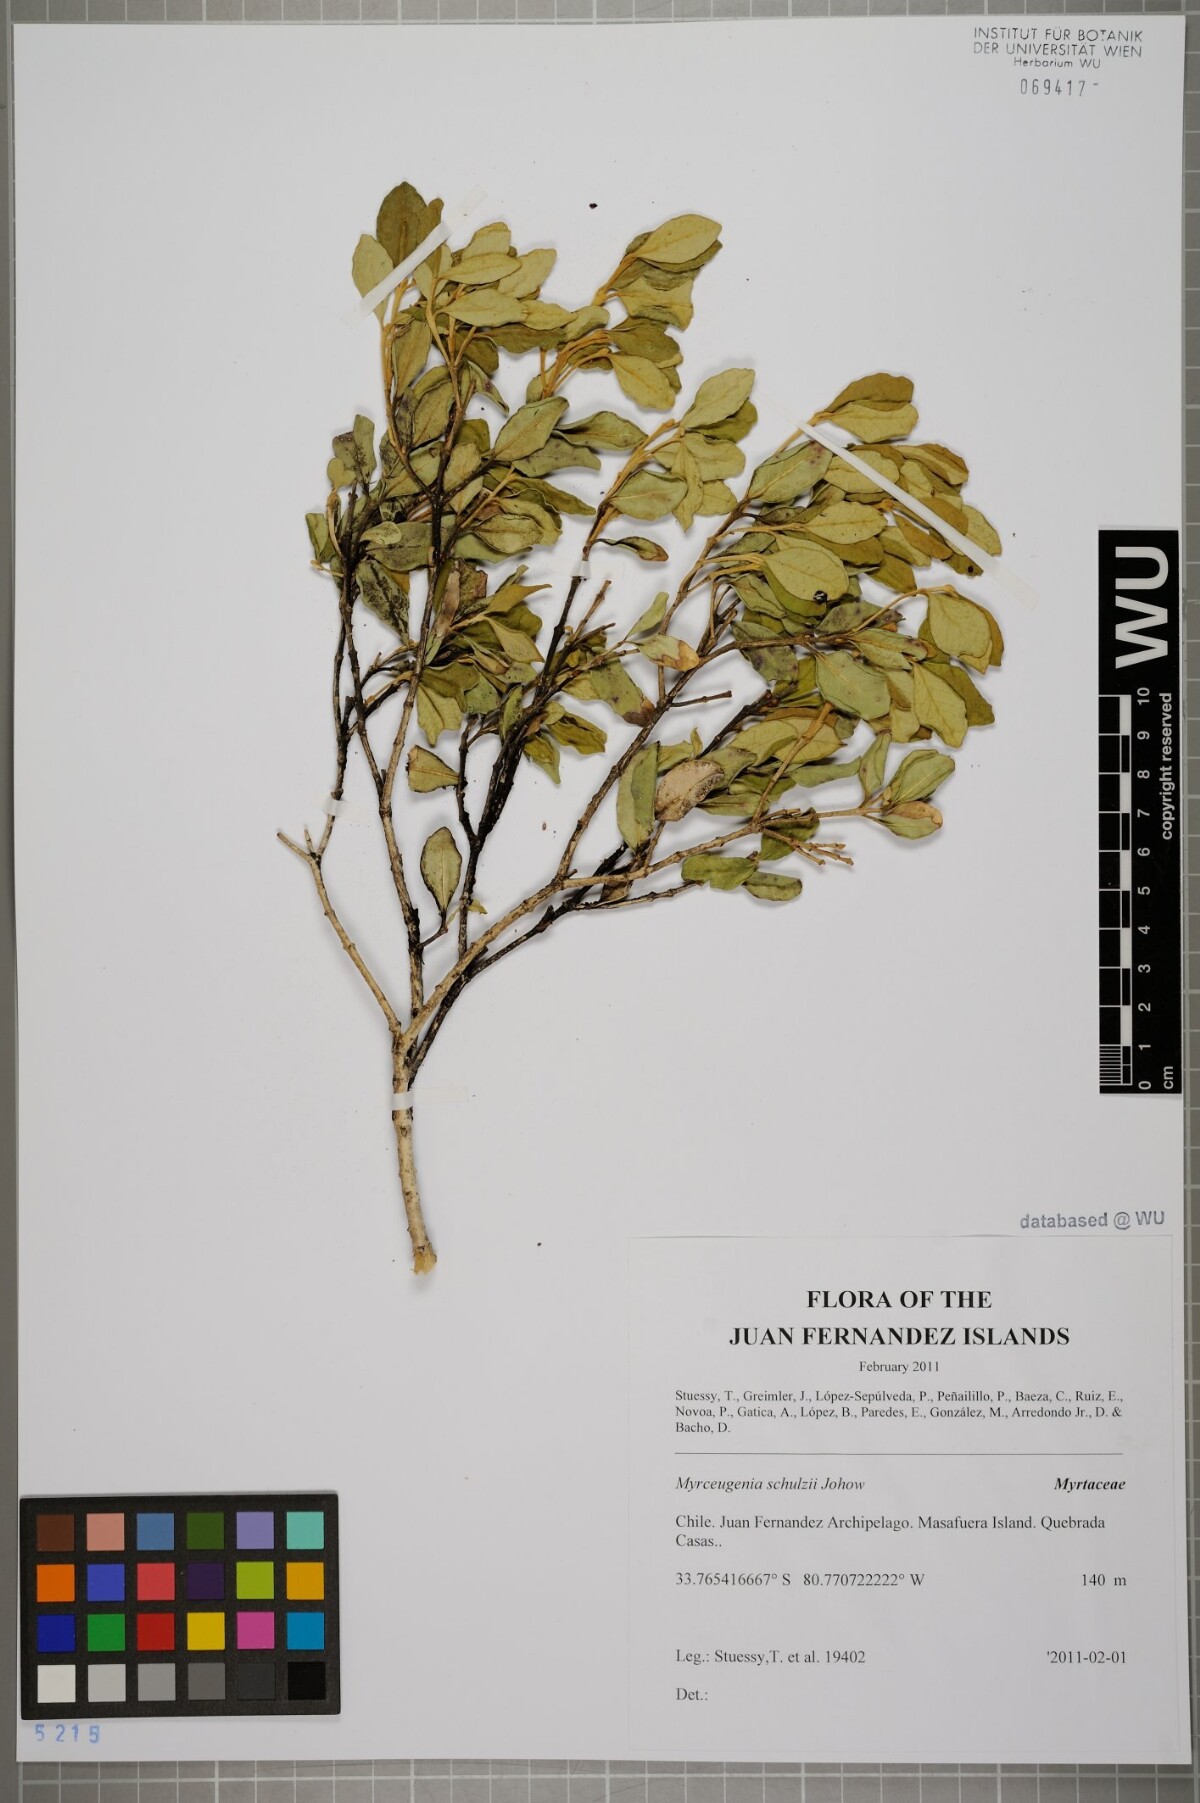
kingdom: Plantae
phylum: Tracheophyta
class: Magnoliopsida
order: Myrtales
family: Myrtaceae
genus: Myrceugenia
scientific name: Myrceugenia schulzei
